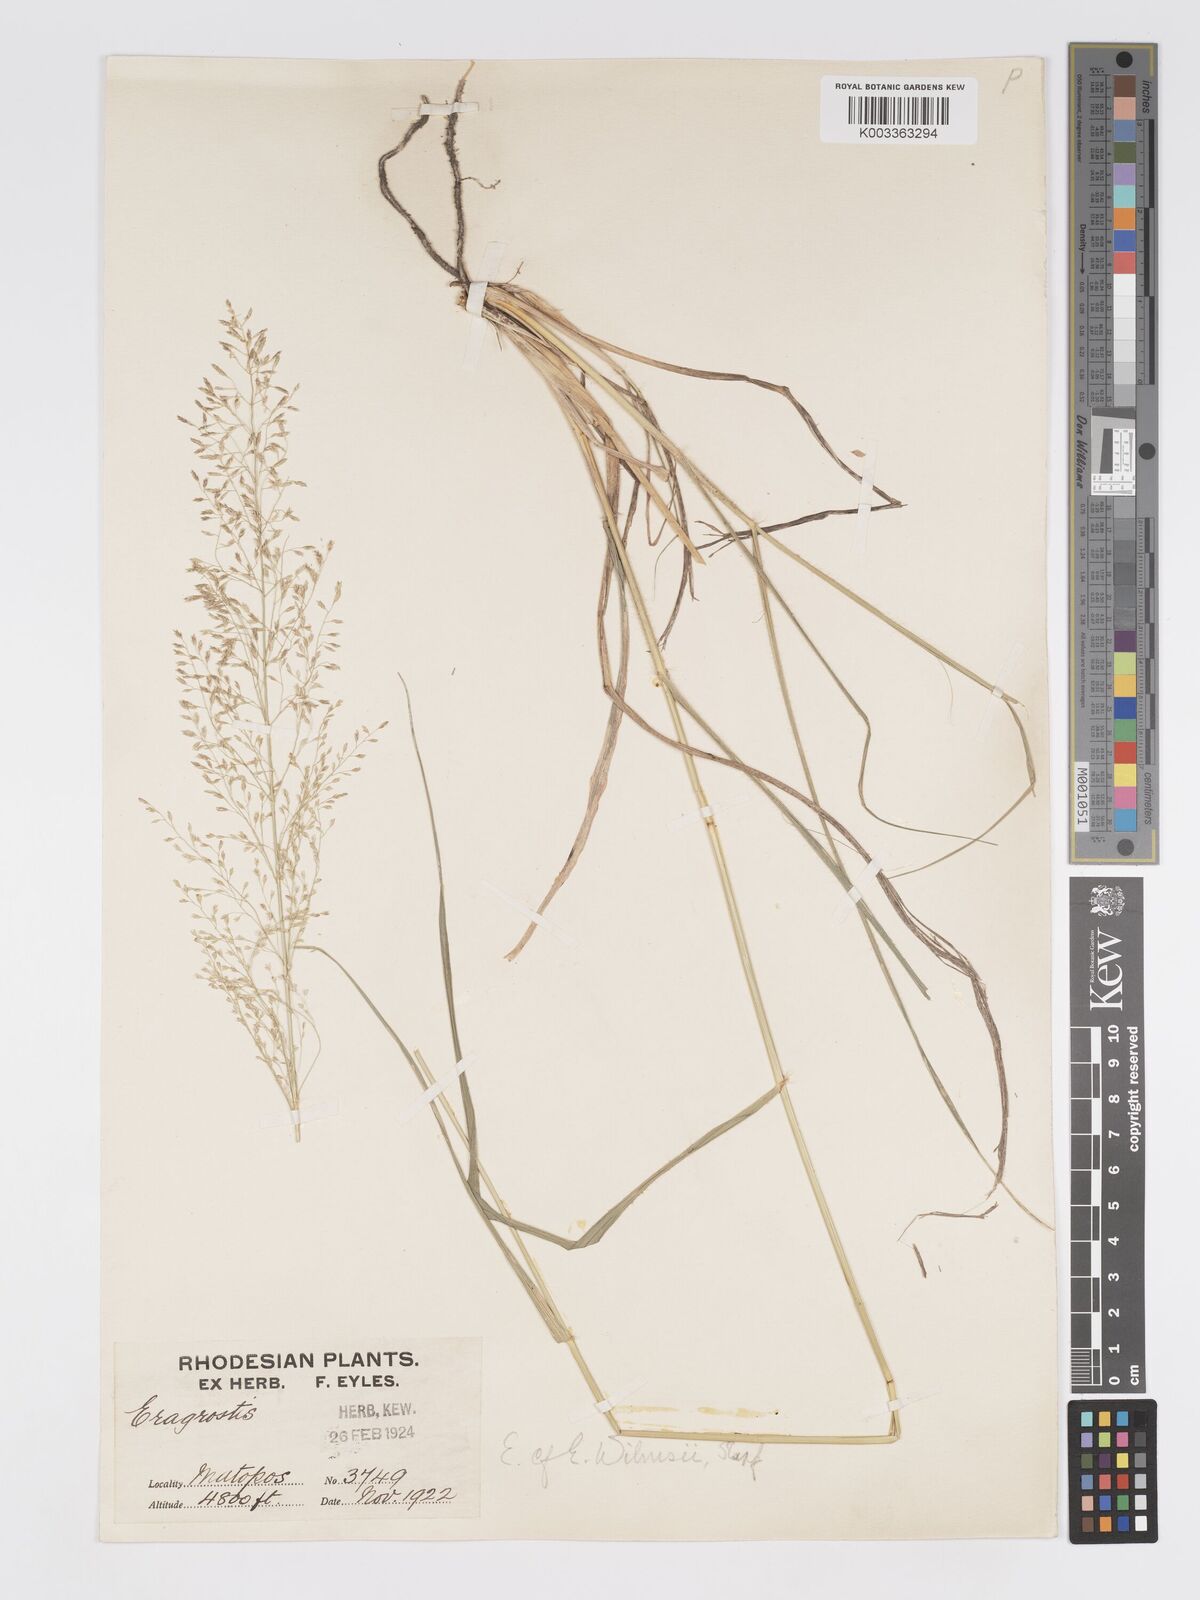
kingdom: Plantae
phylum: Tracheophyta
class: Liliopsida
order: Poales
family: Poaceae
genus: Eragrostis
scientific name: Eragrostis curvula
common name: African love-grass
